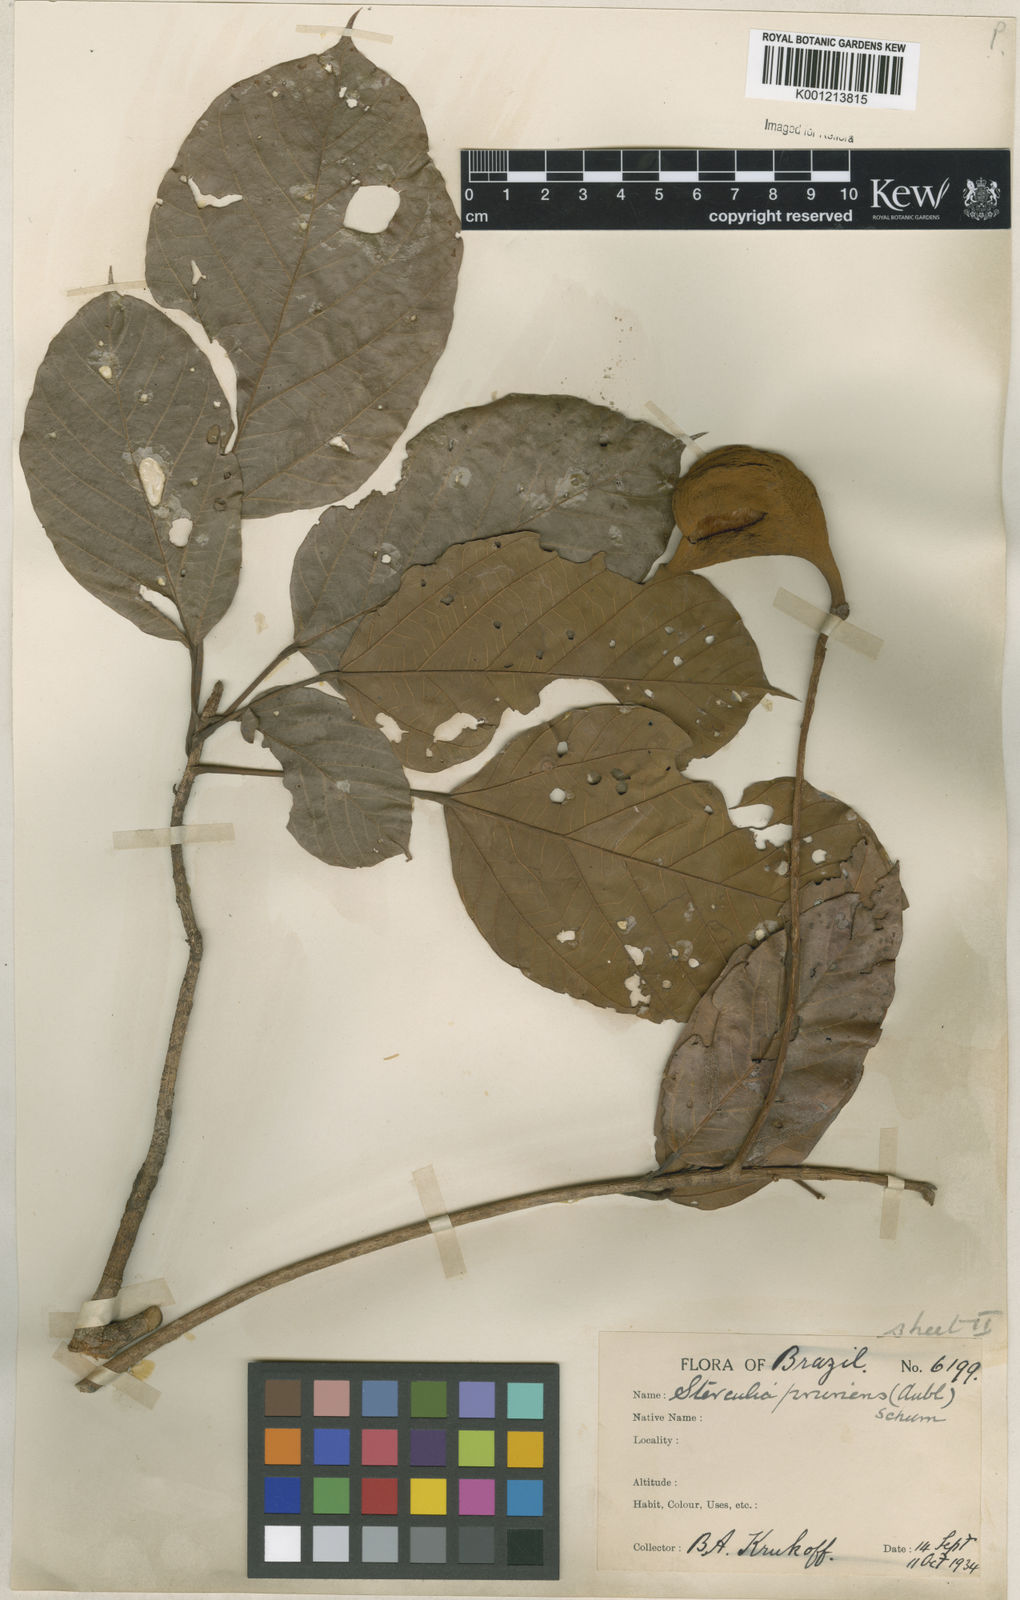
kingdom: Plantae
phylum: Tracheophyta
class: Magnoliopsida
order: Malvales
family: Malvaceae
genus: Sterculia
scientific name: Sterculia pruriens
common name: Grand mahot
